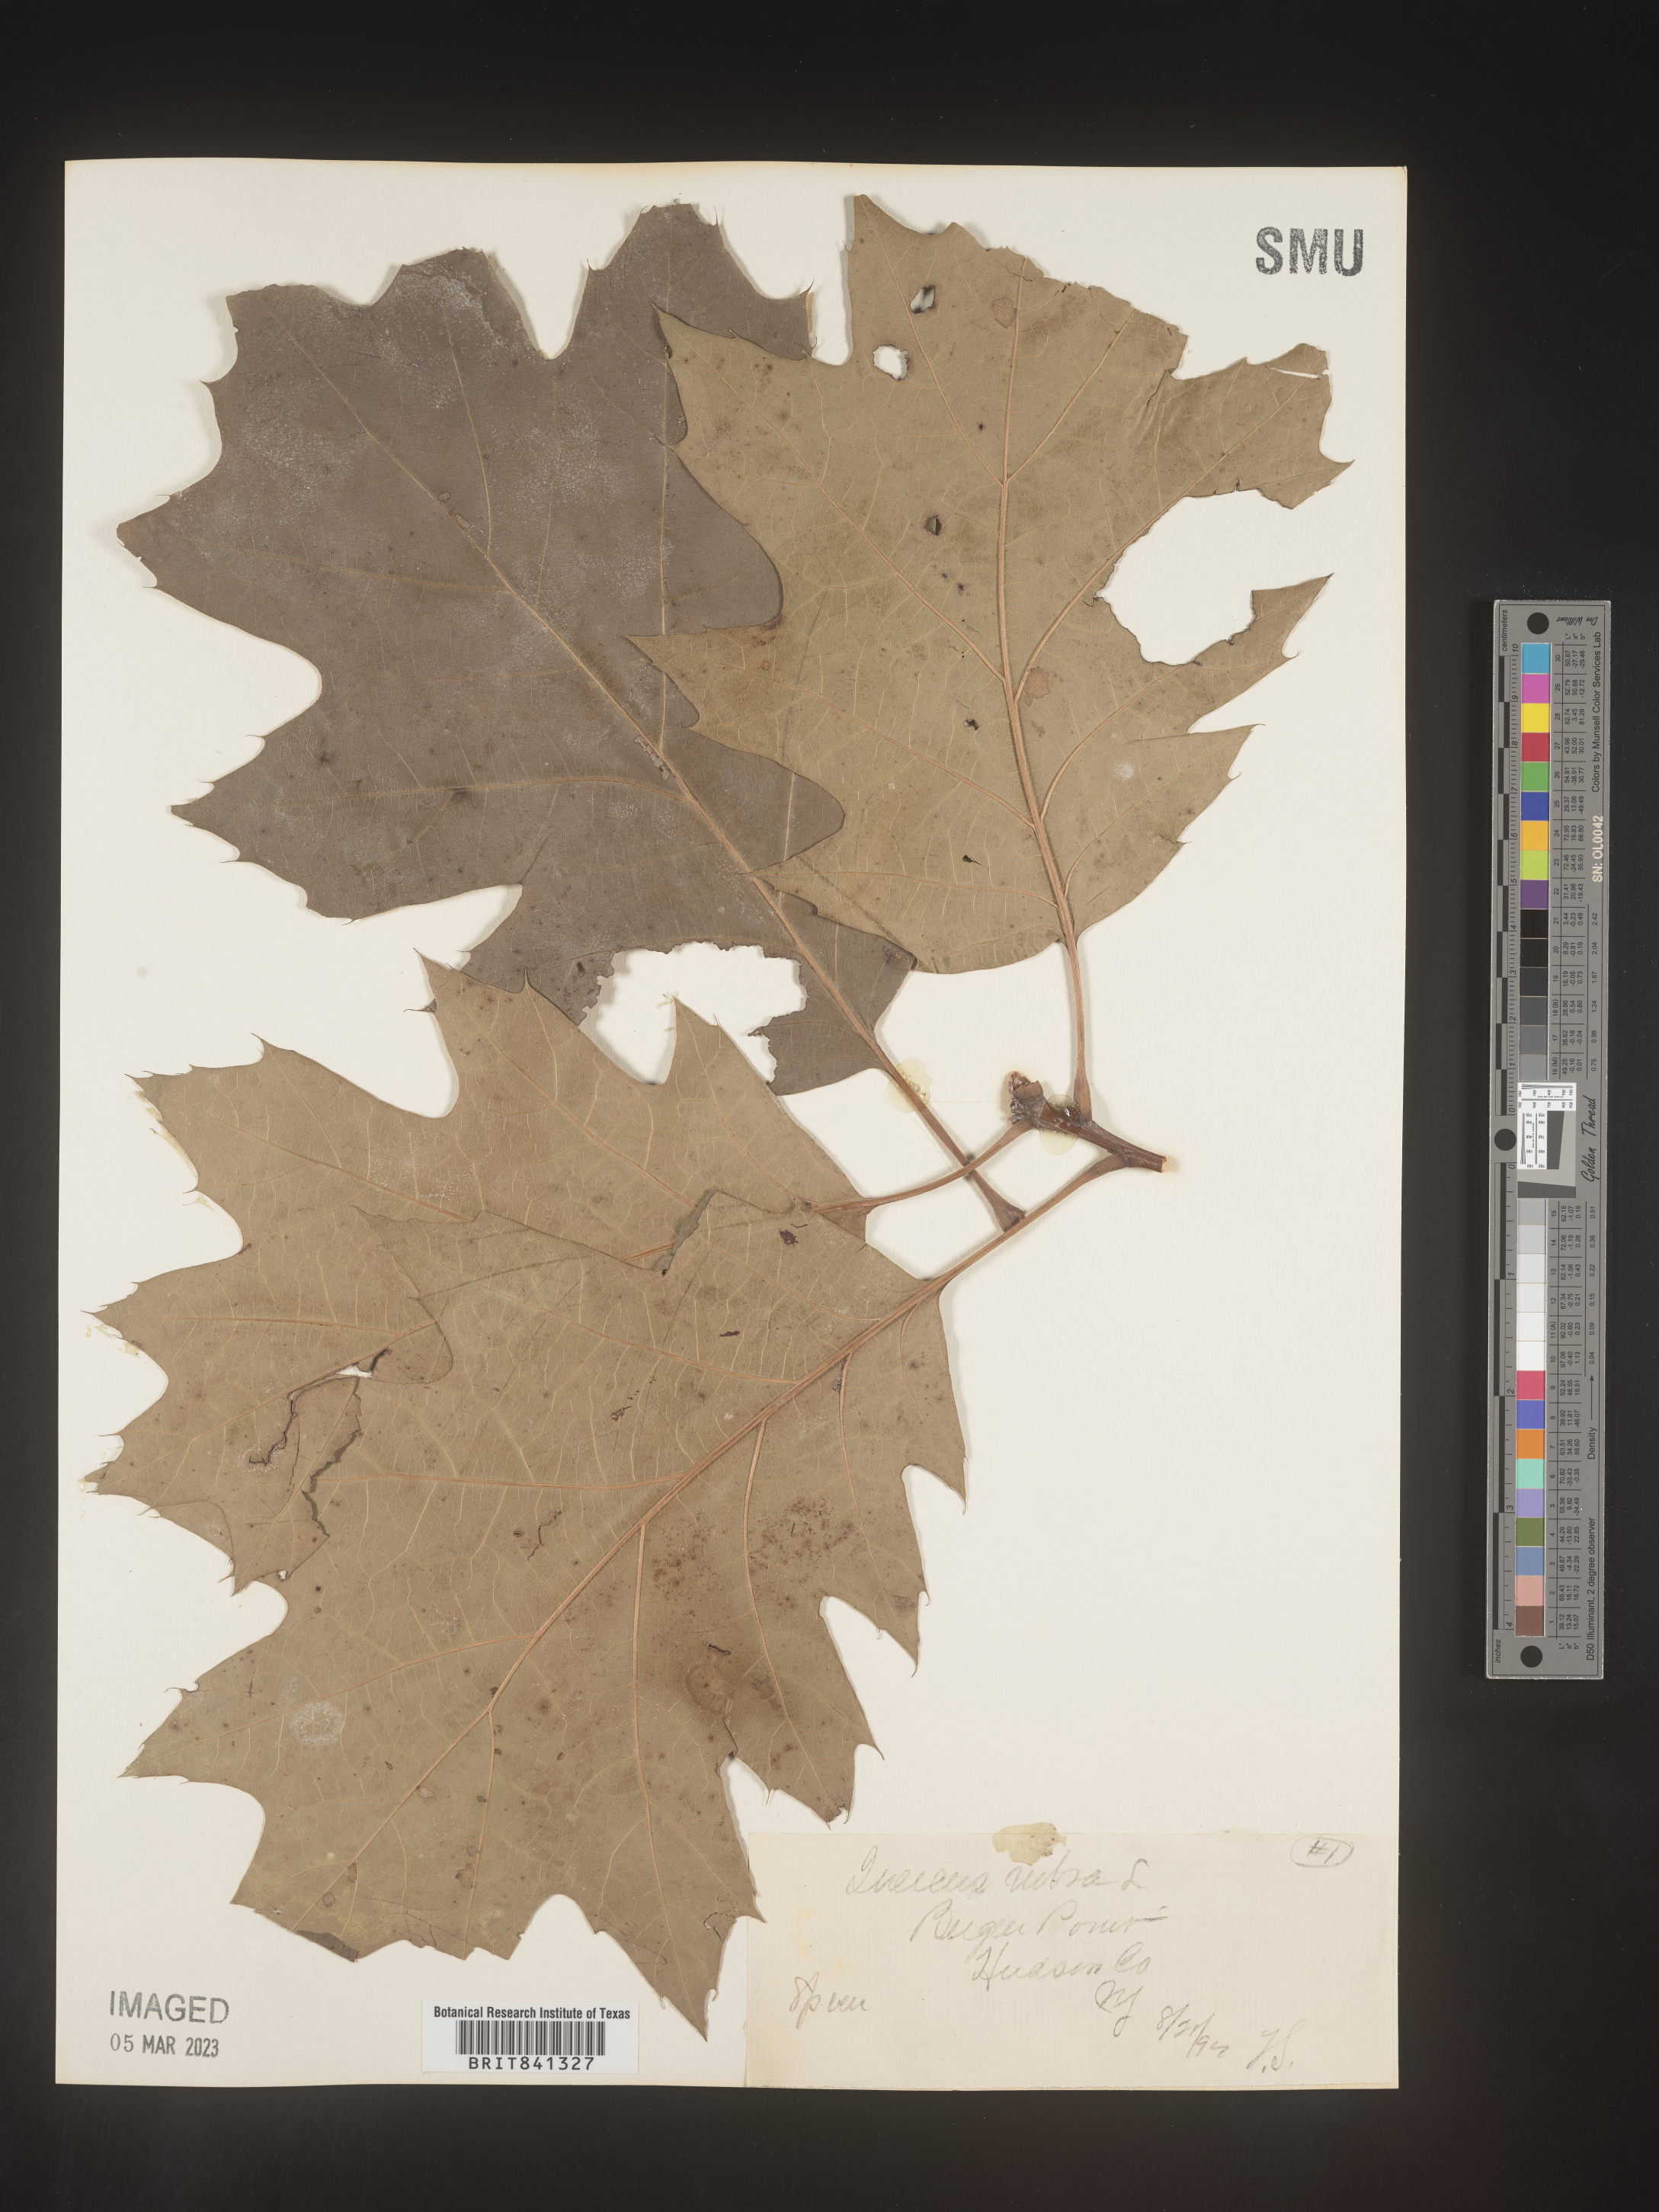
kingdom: Plantae
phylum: Tracheophyta
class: Magnoliopsida
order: Fagales
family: Fagaceae
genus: Quercus
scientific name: Quercus rubra
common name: Red oak
